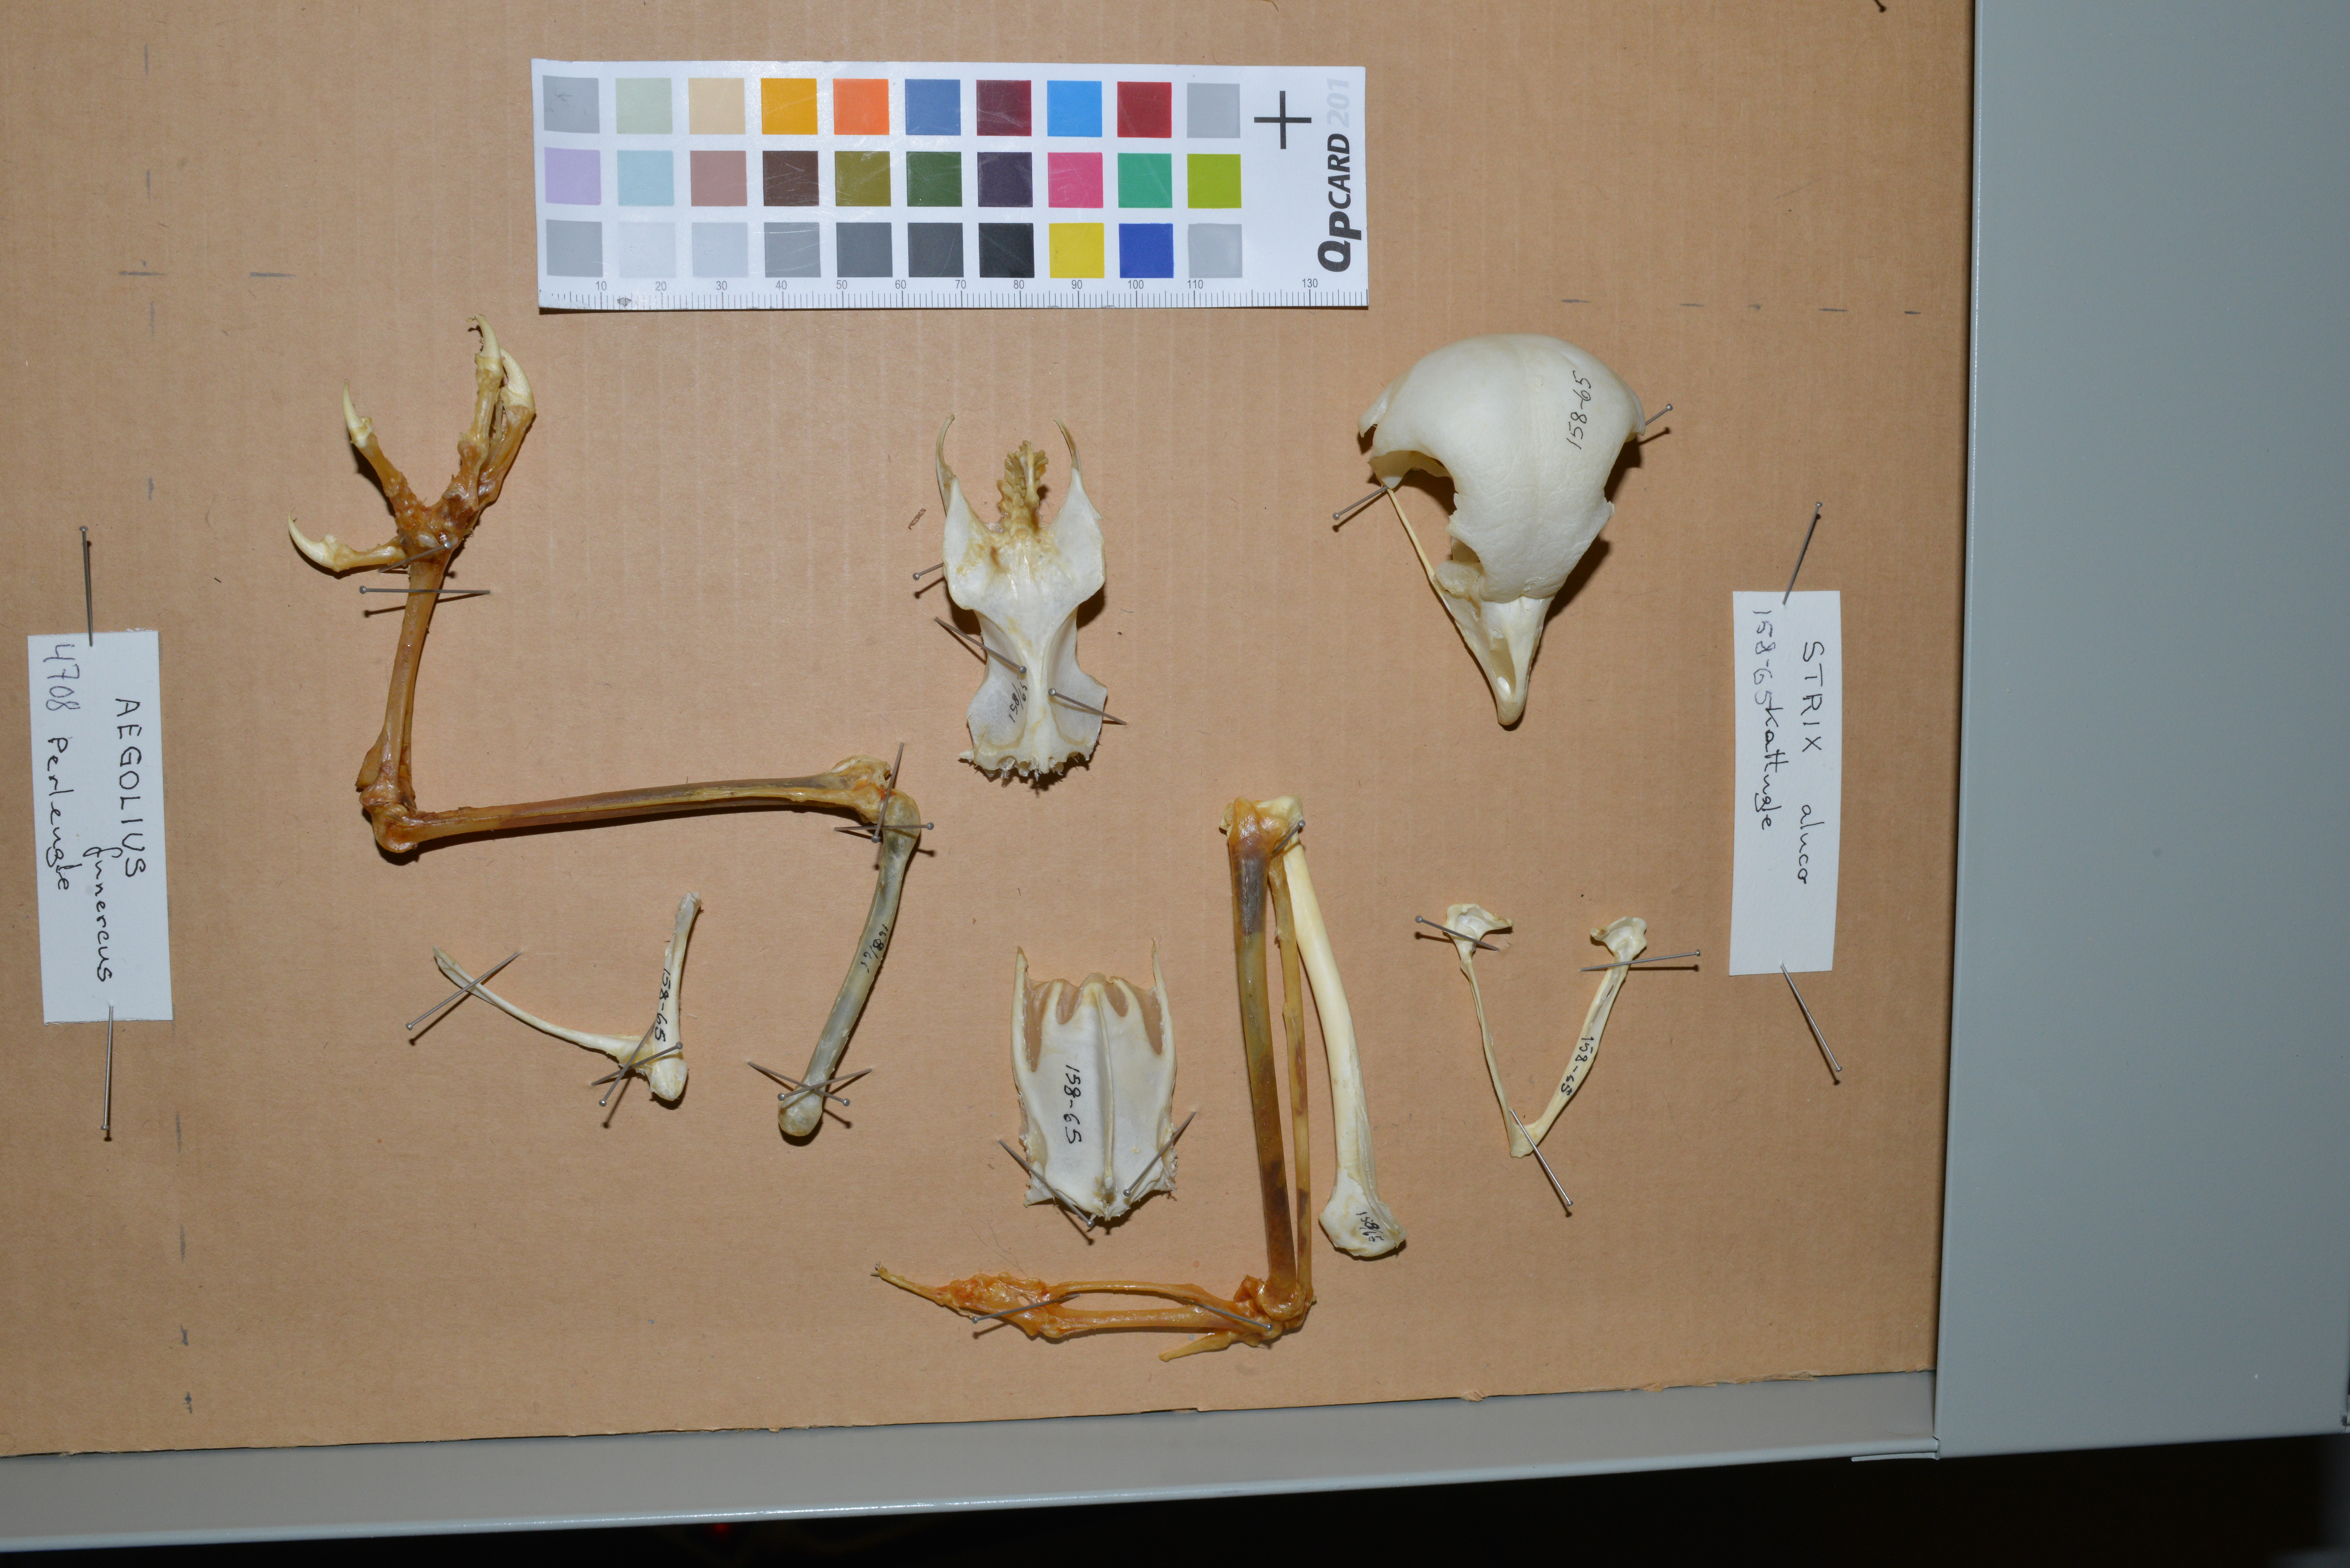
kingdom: Animalia
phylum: Chordata
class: Aves
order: Strigiformes
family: Strigidae
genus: Strix
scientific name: Strix aluco
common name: Tawny owl
